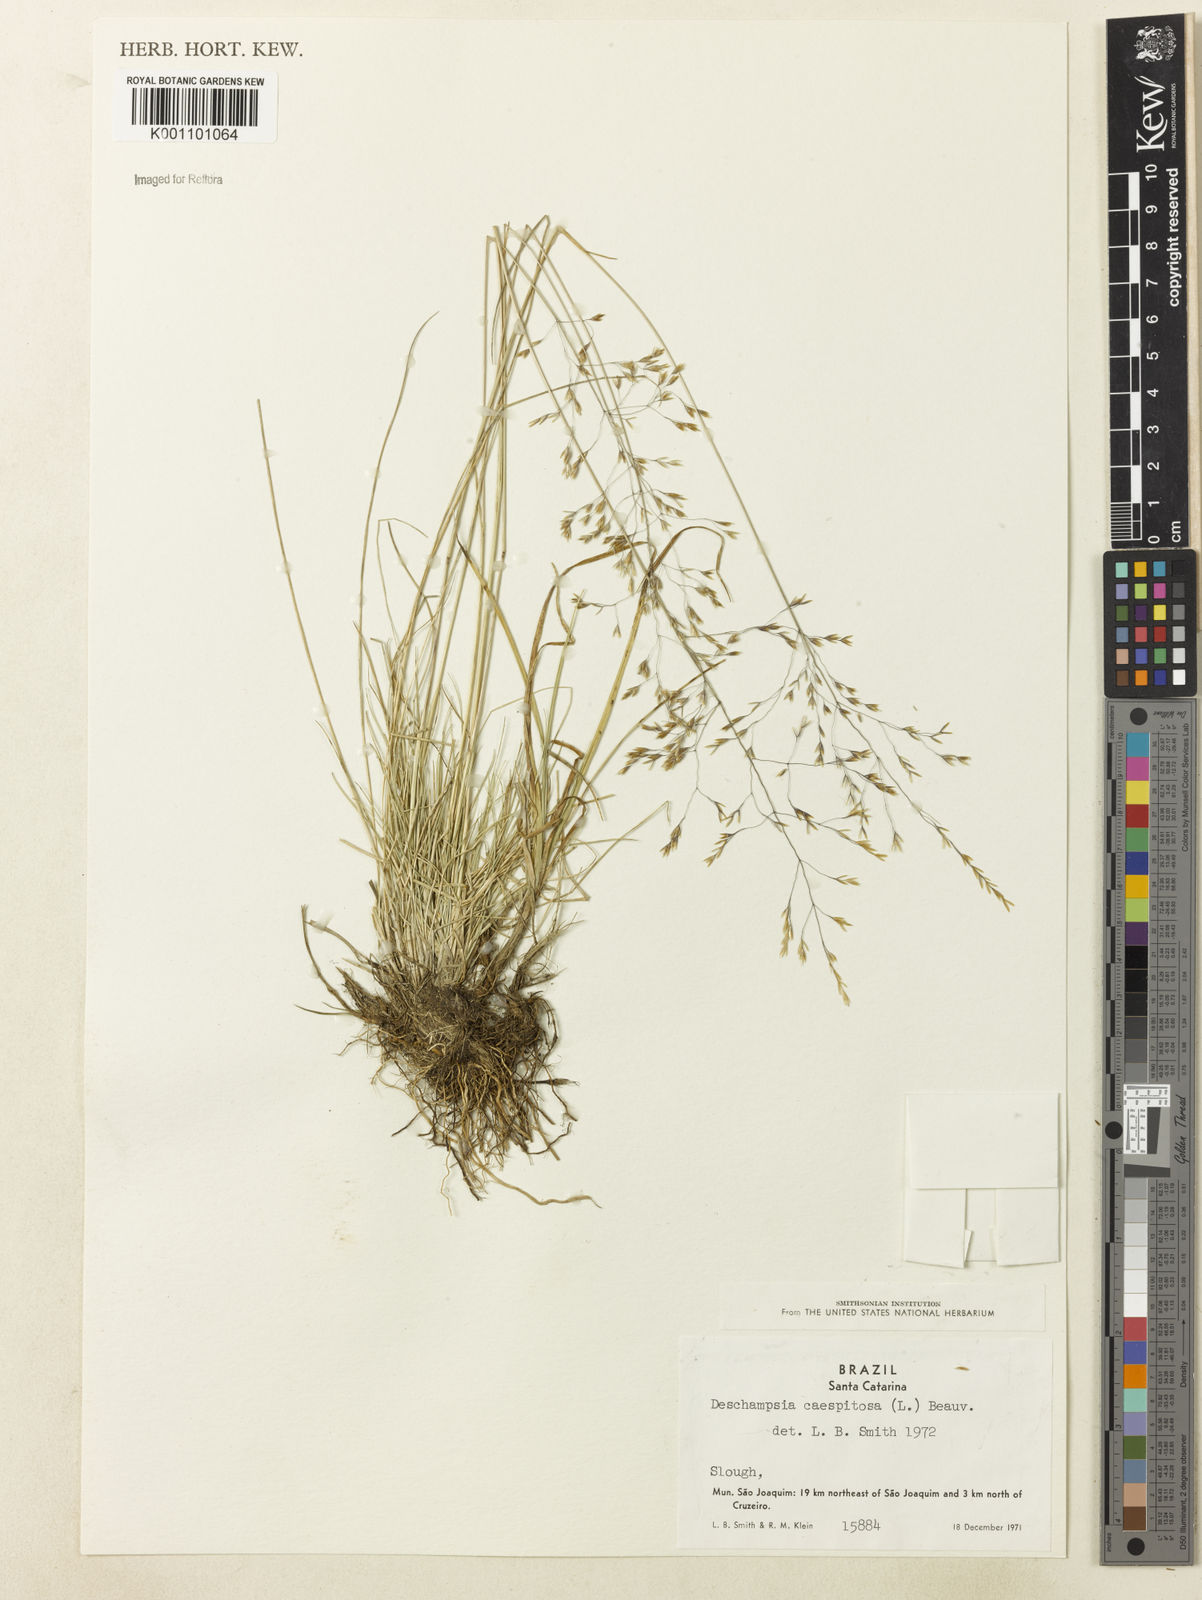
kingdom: Plantae
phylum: Tracheophyta
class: Liliopsida
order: Poales
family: Poaceae
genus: Deschampsia
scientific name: Deschampsia
